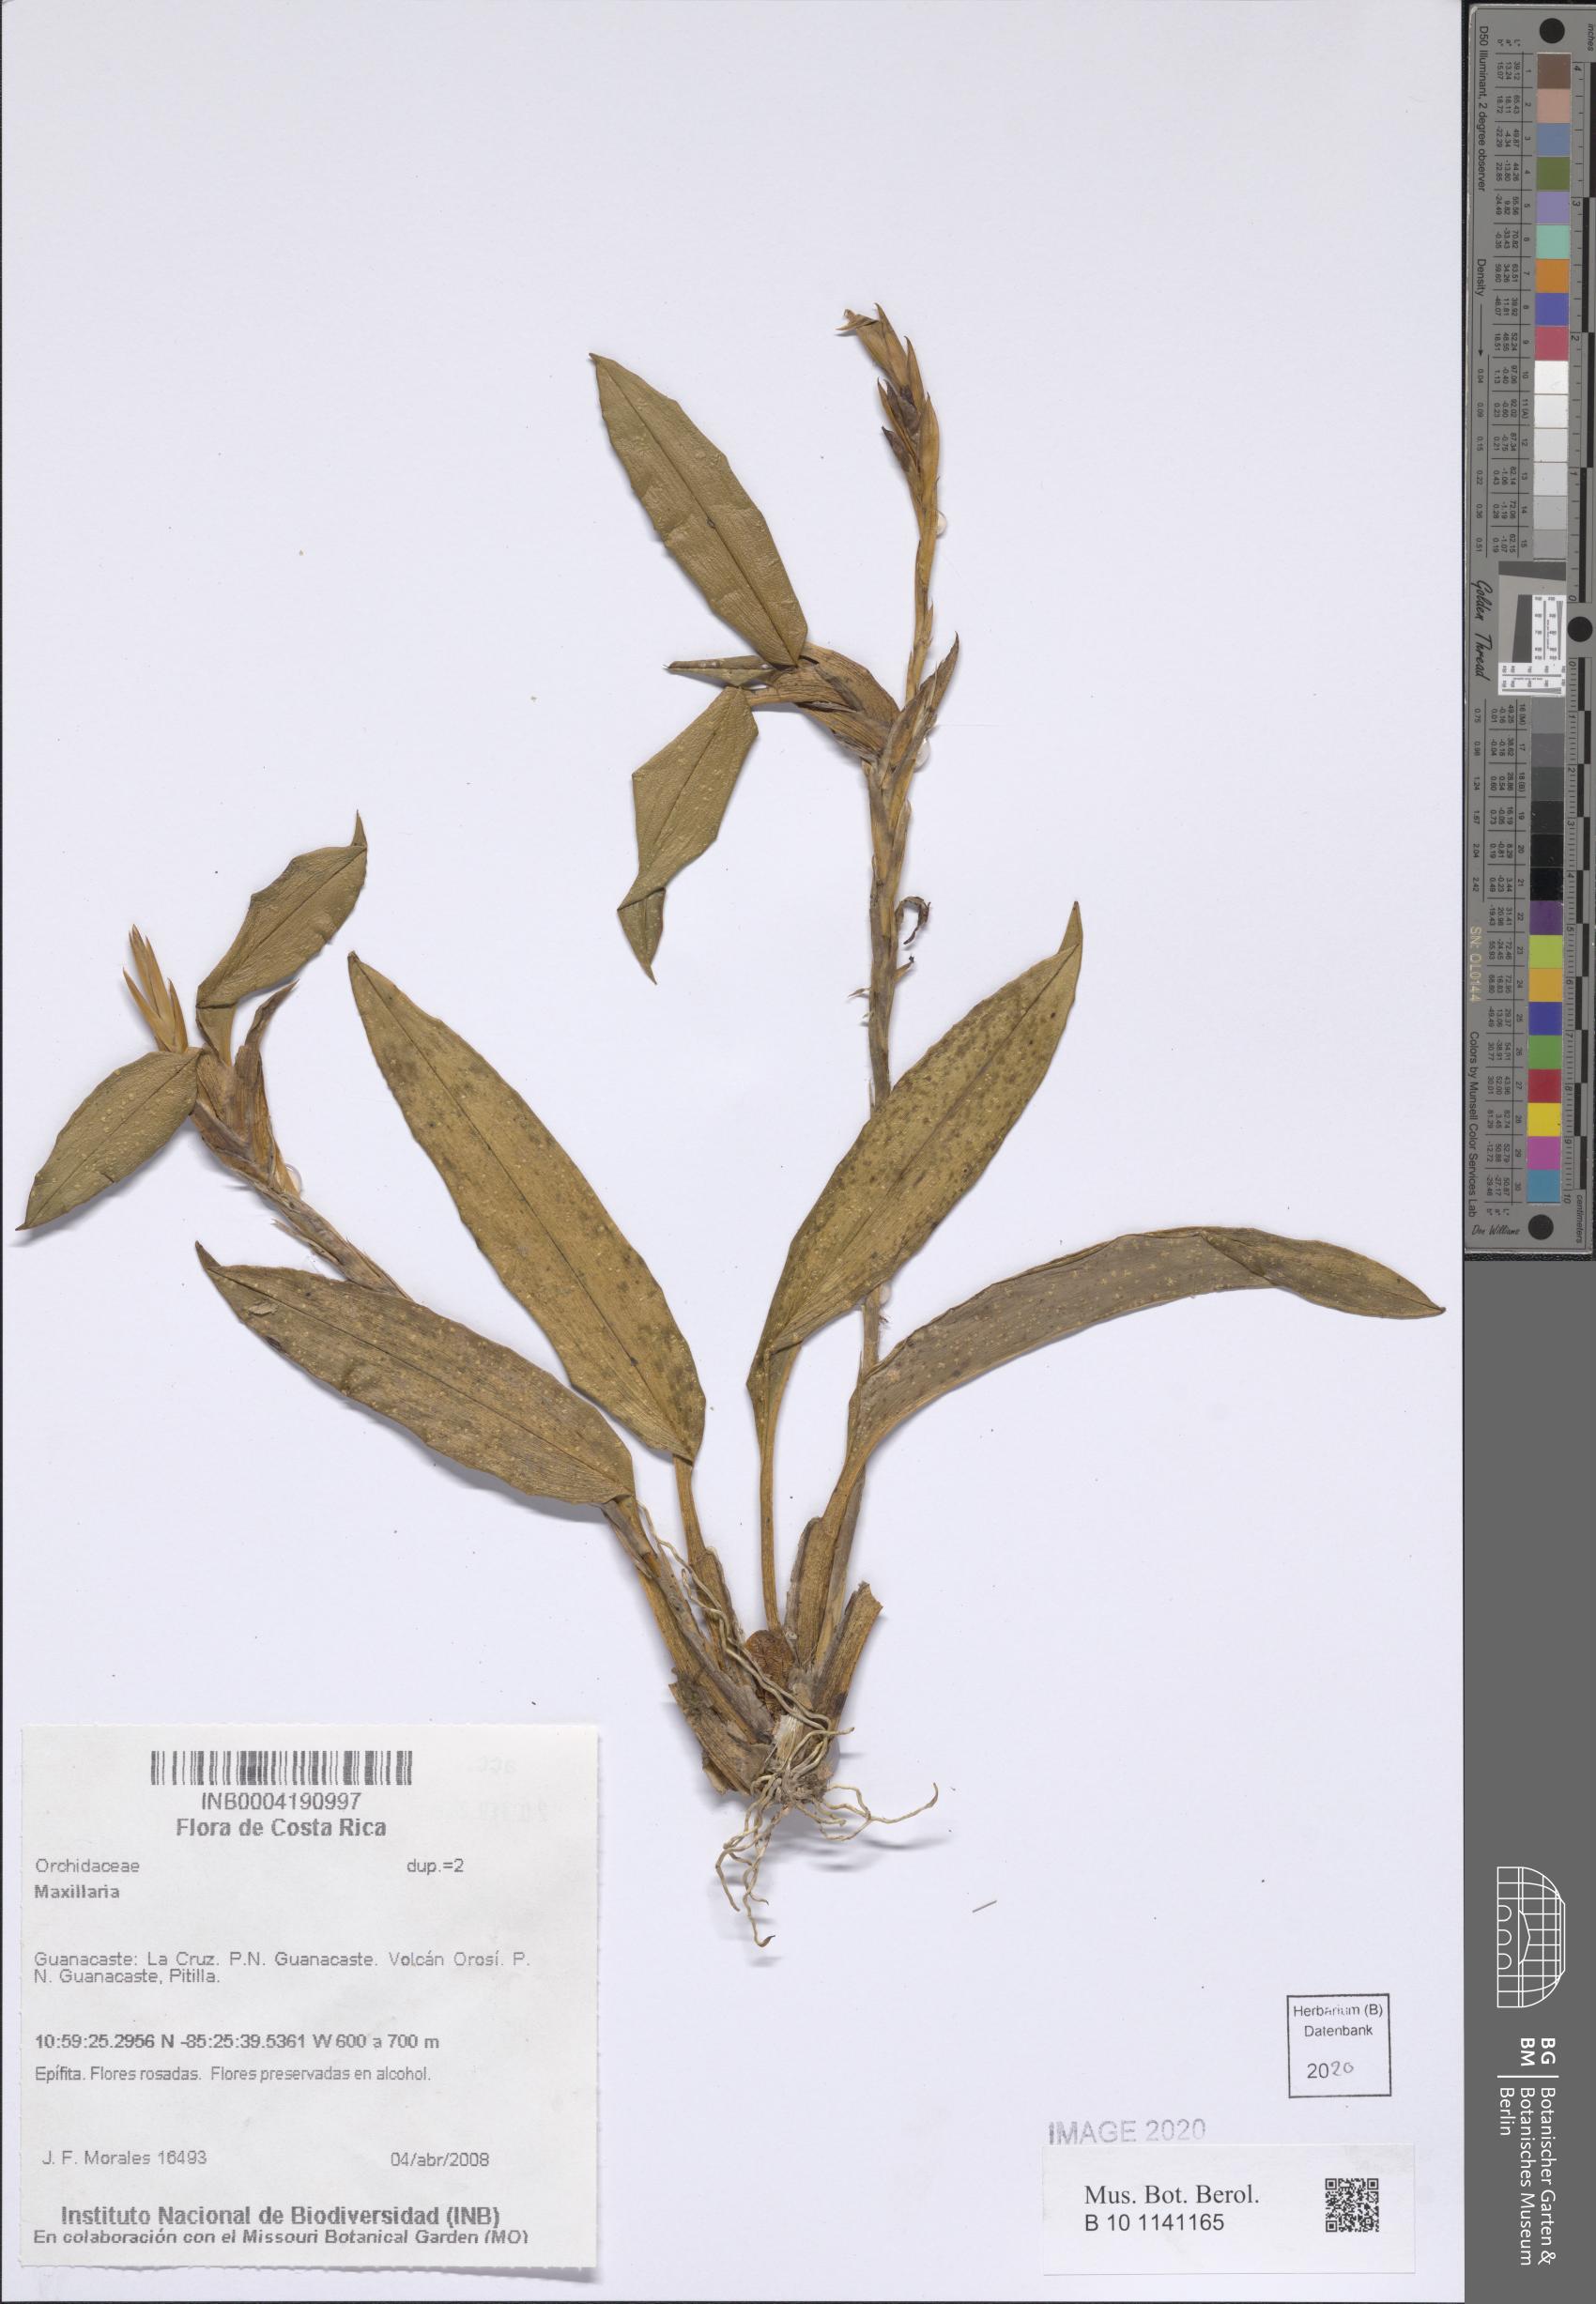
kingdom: Plantae
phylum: Tracheophyta
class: Liliopsida
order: Asparagales
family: Orchidaceae
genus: Maxillaria
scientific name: Maxillaria
